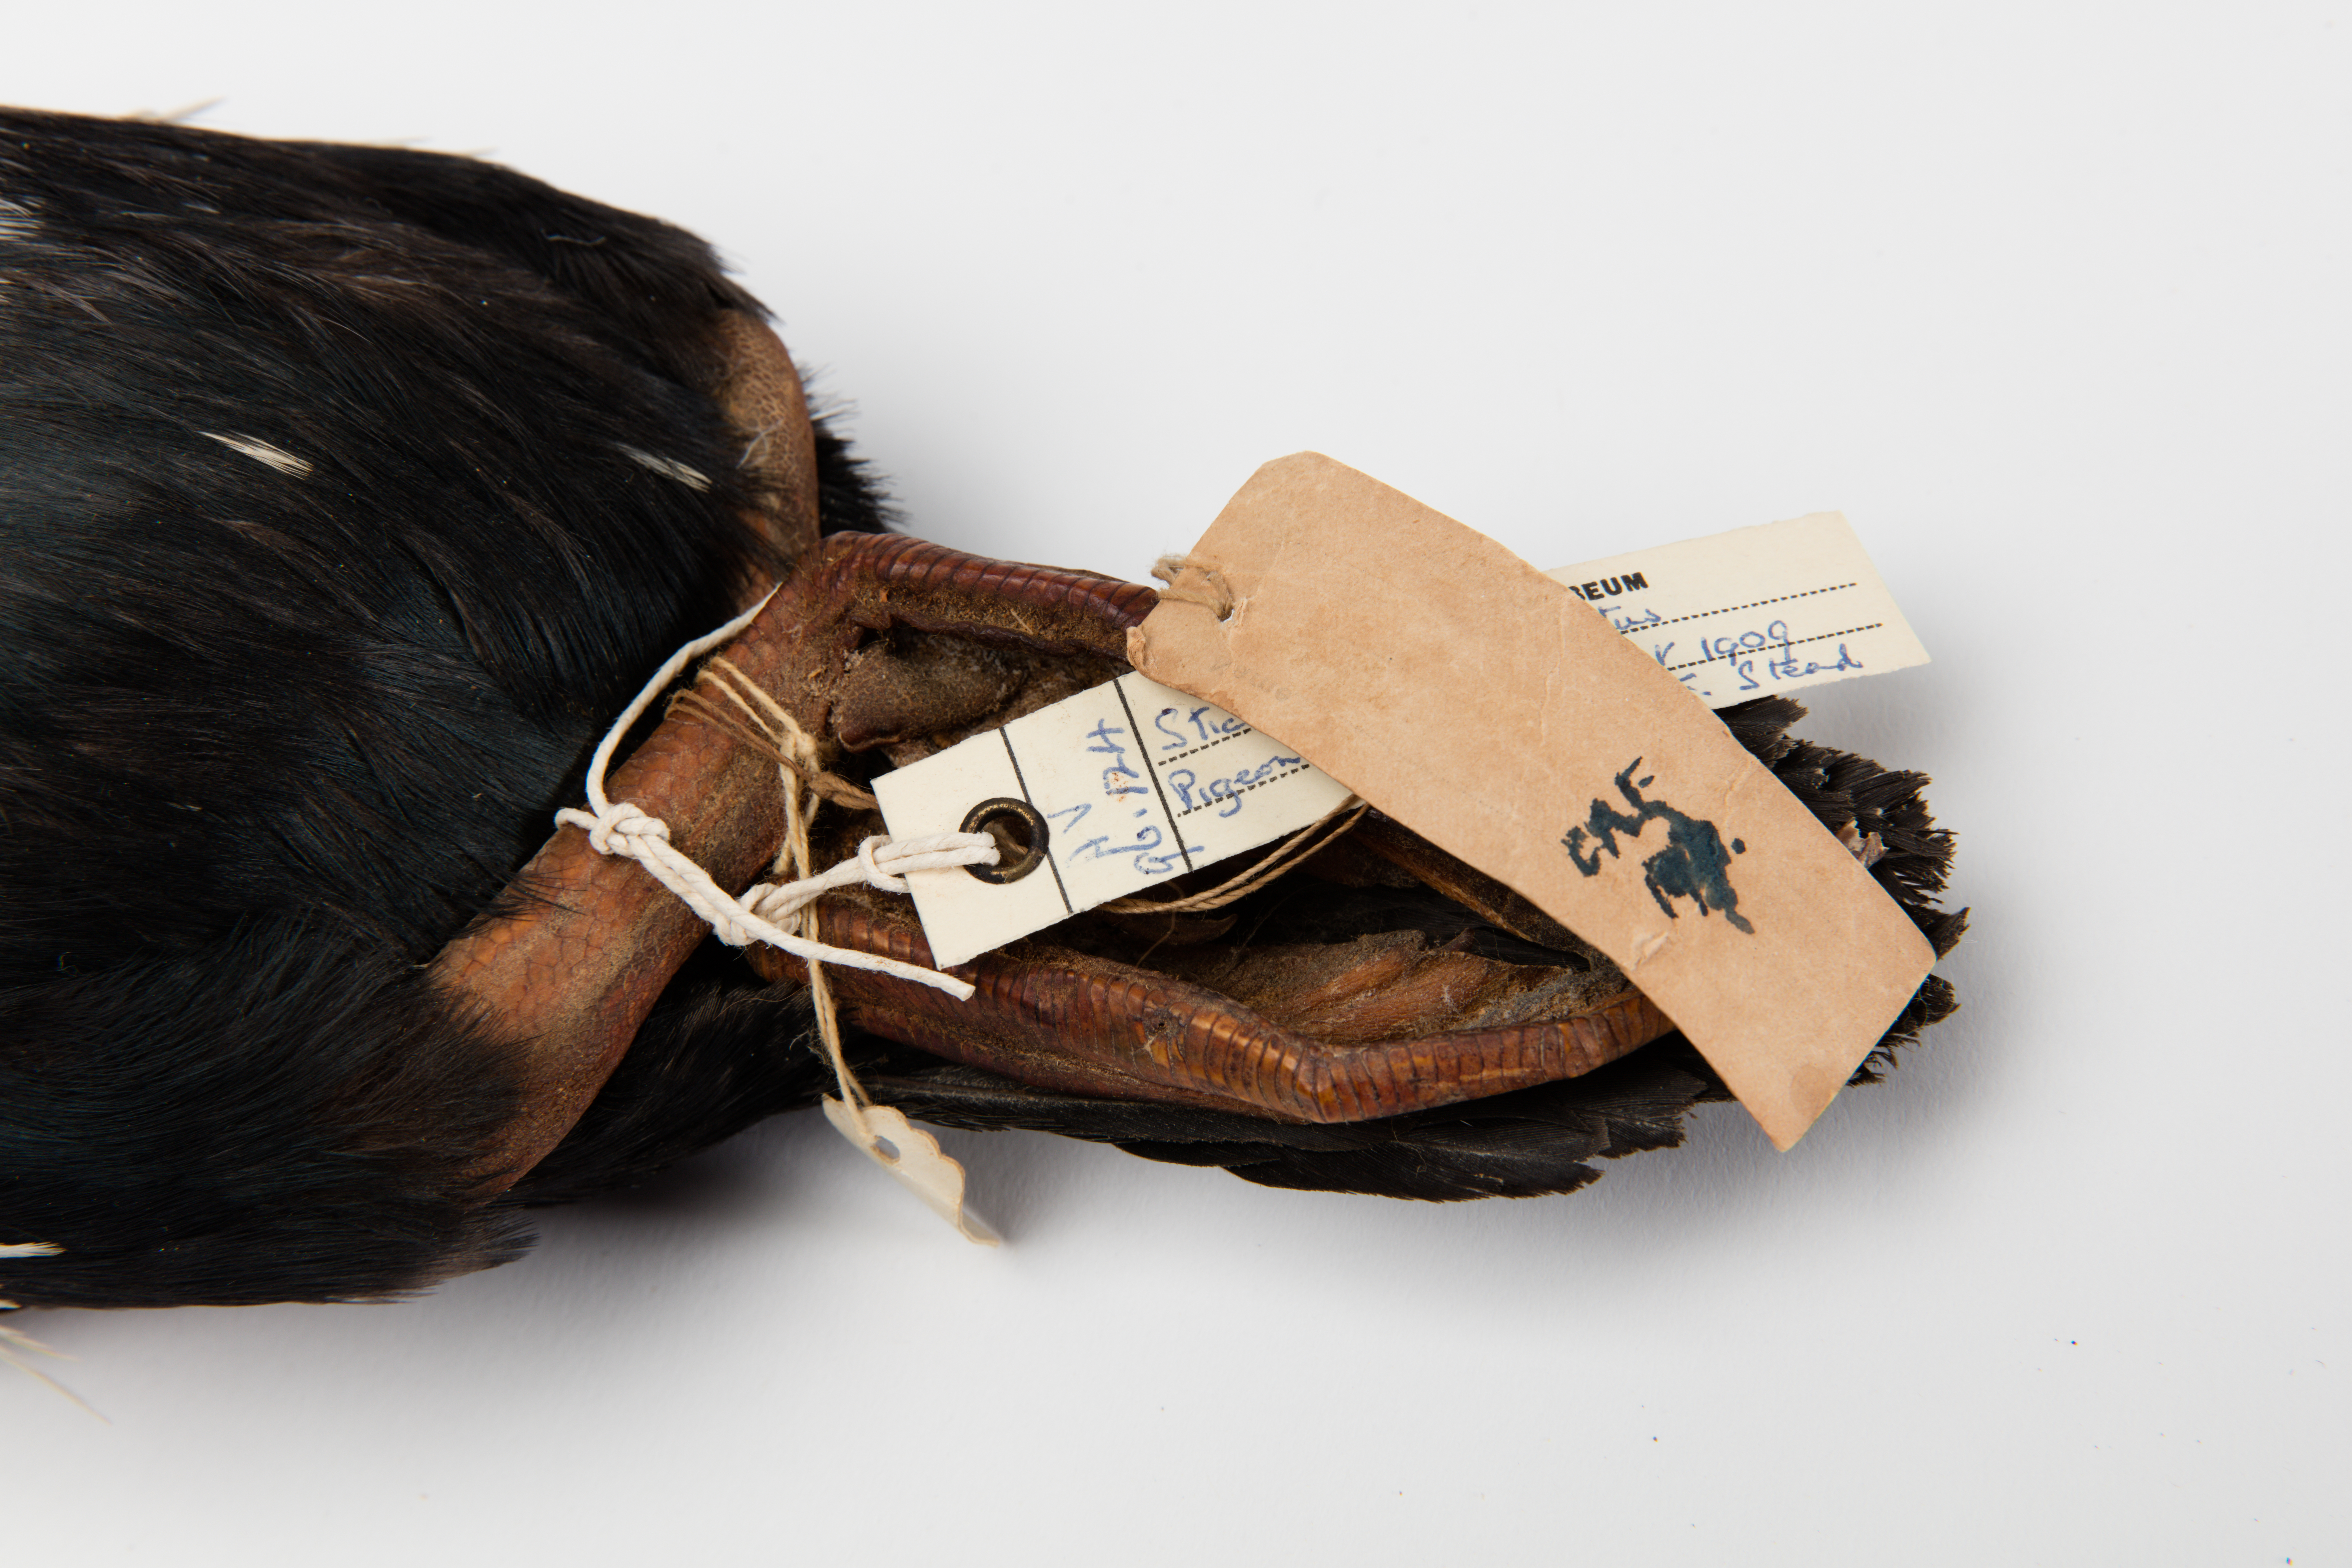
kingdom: Animalia
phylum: Chordata
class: Aves
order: Suliformes
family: Phalacrocoracidae
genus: Phalacrocorax
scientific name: Phalacrocorax punctatus
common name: Spotted shag
